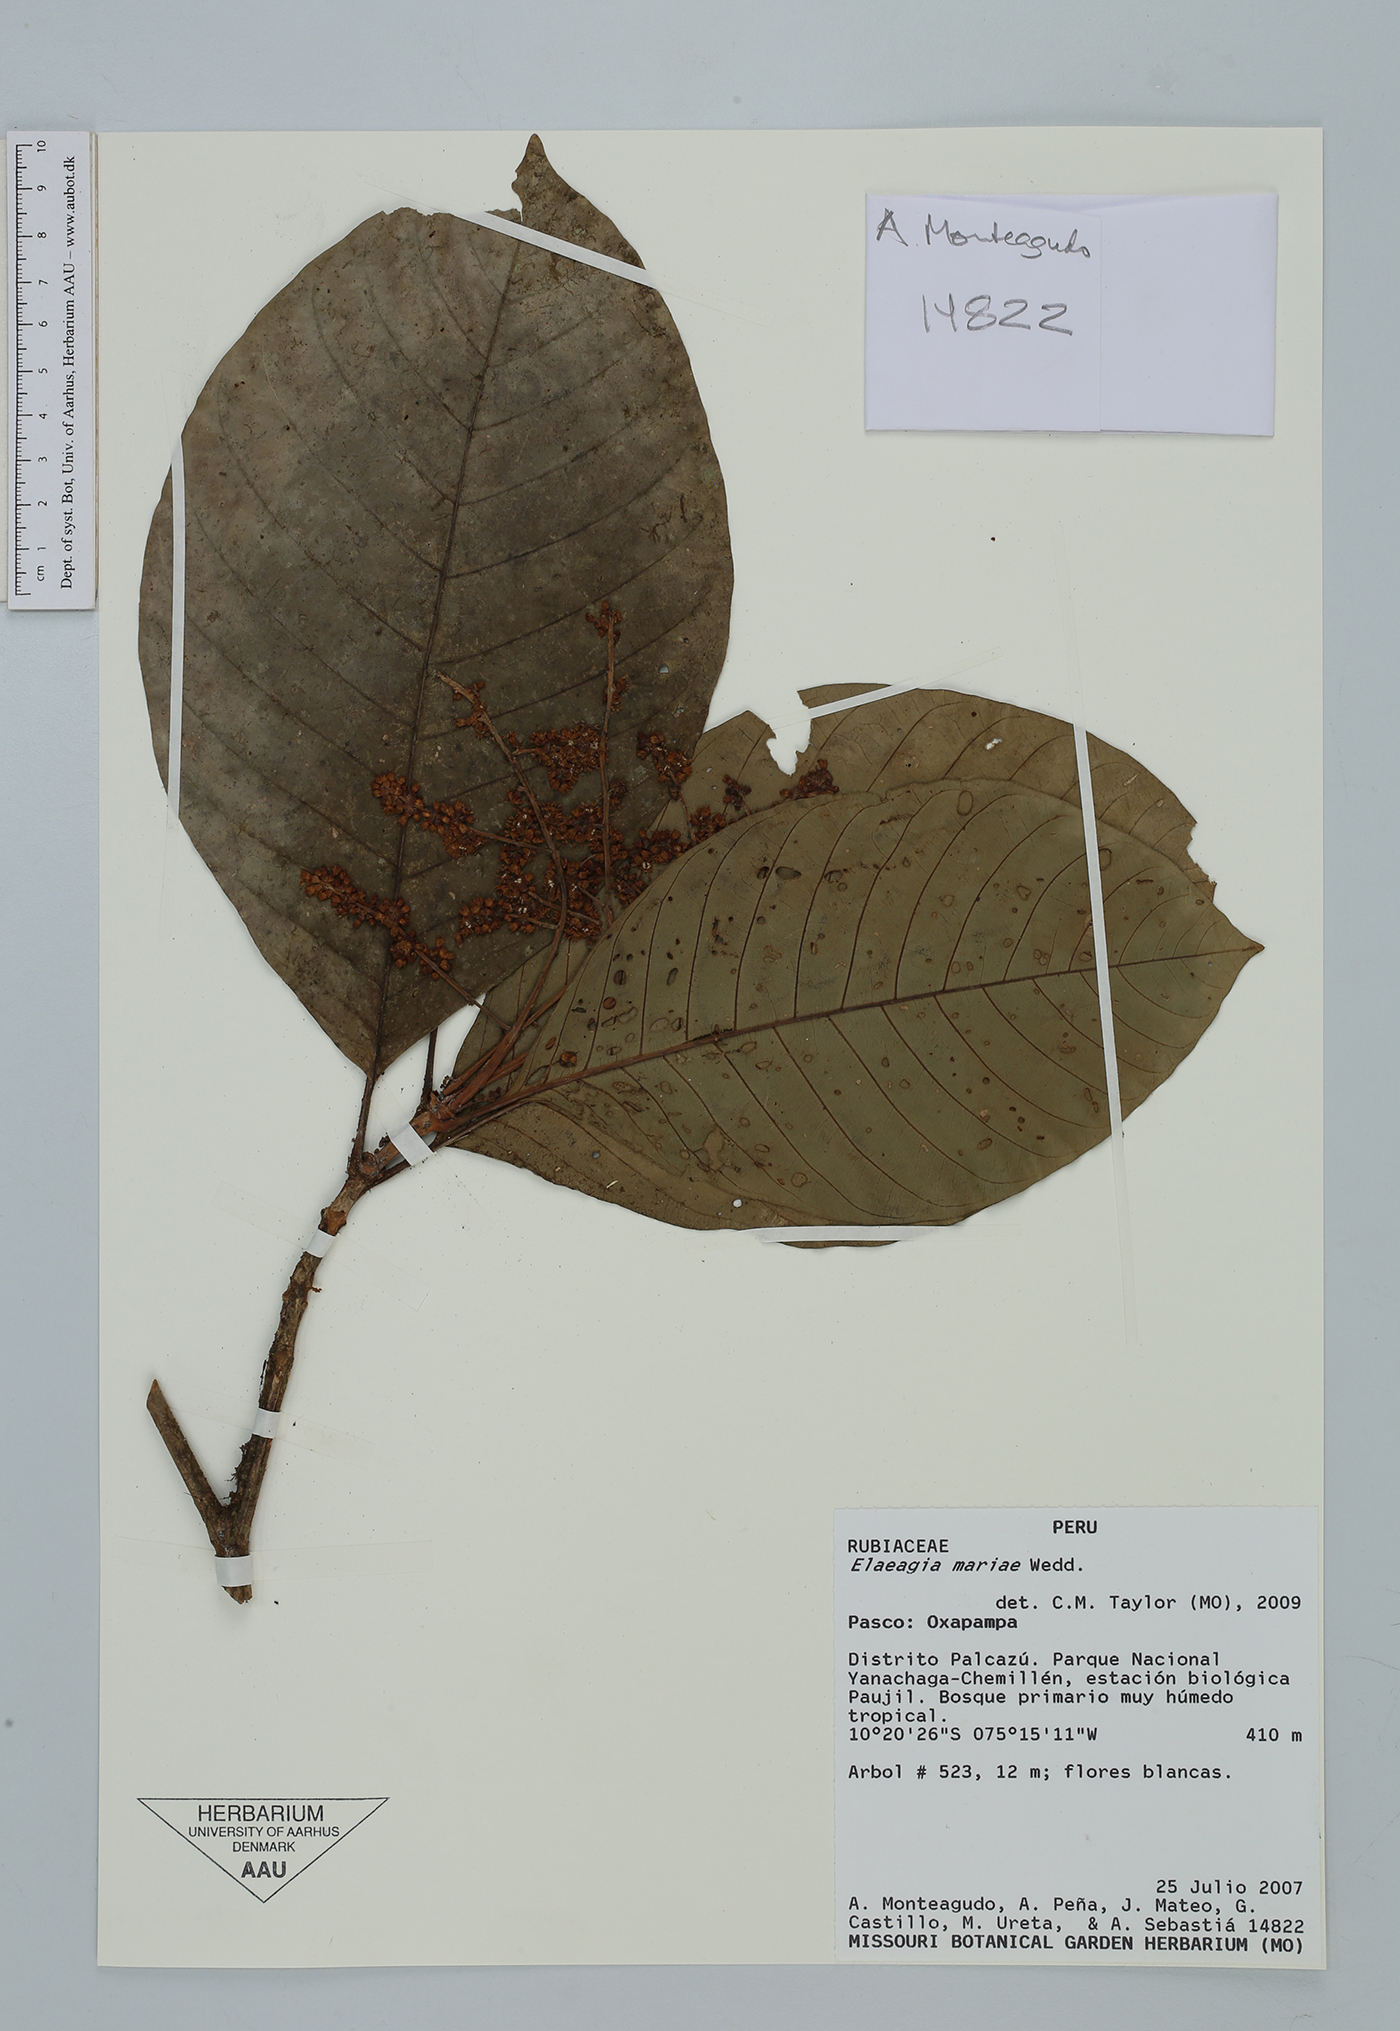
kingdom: Plantae
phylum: Tracheophyta
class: Magnoliopsida
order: Gentianales
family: Rubiaceae
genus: Elaeagia
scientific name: Elaeagia mariae
